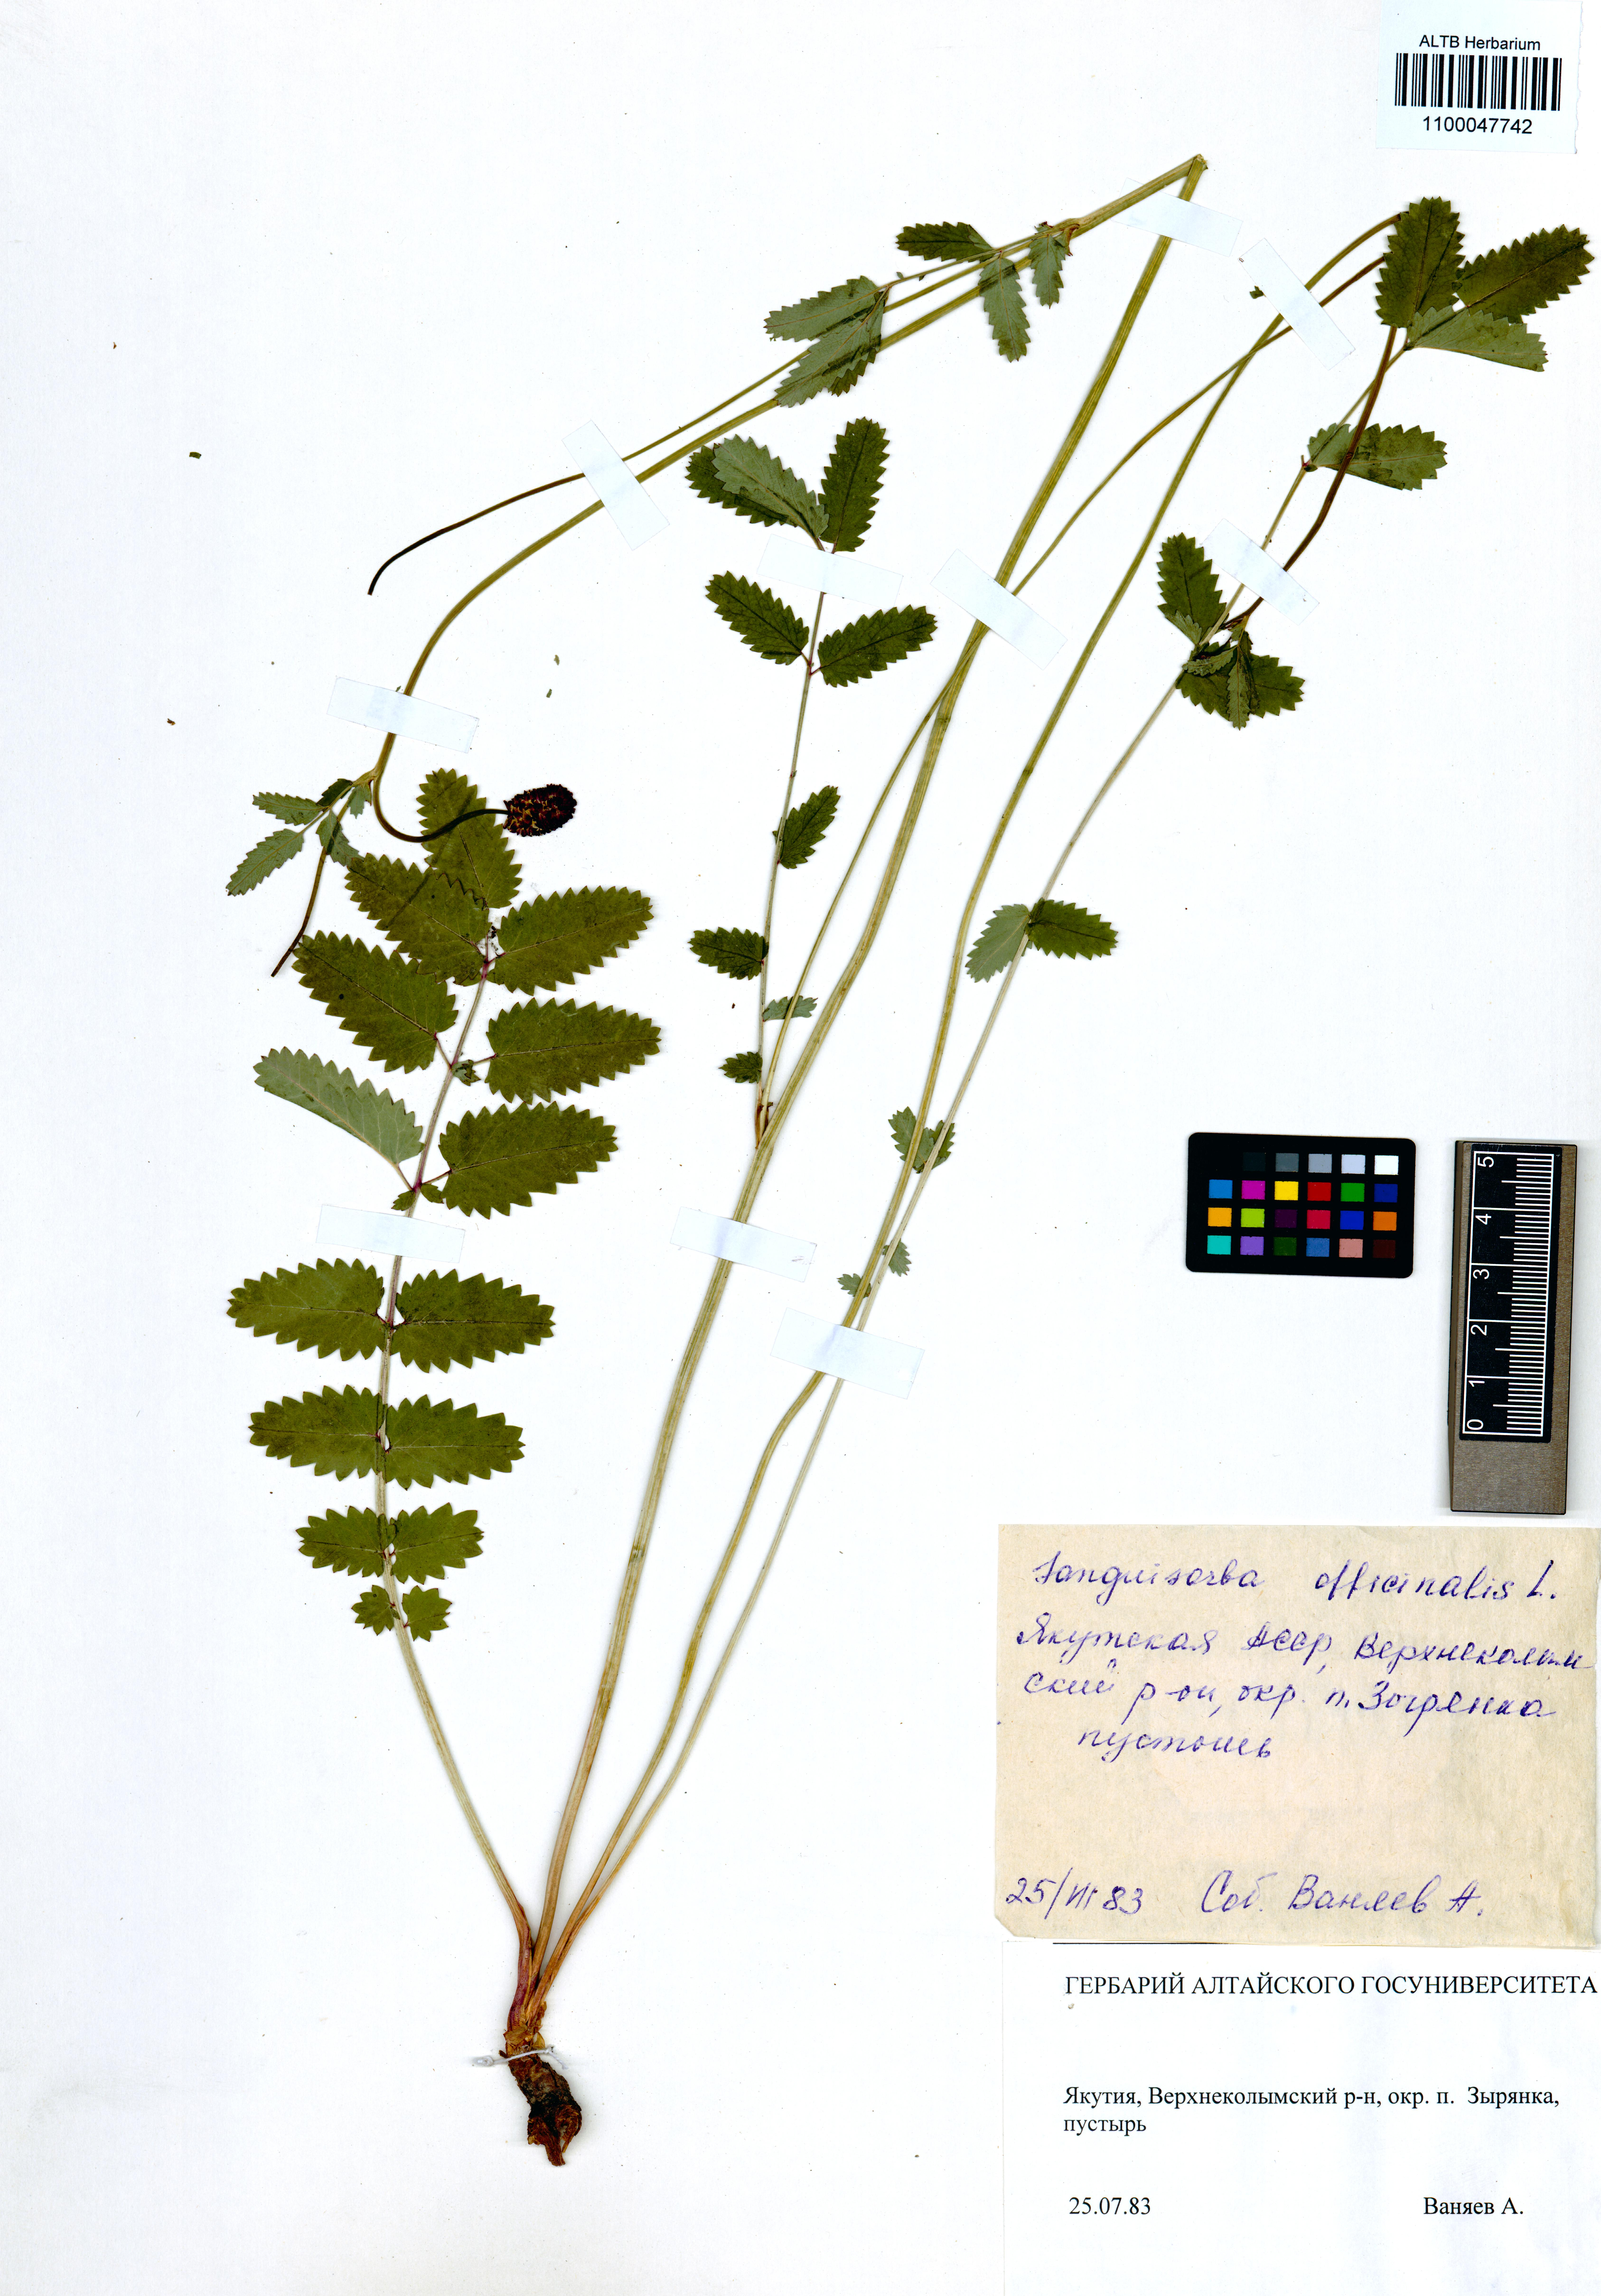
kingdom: Plantae
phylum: Tracheophyta
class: Magnoliopsida
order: Rosales
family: Rosaceae
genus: Sanguisorba
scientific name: Sanguisorba officinalis
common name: Great burnet
